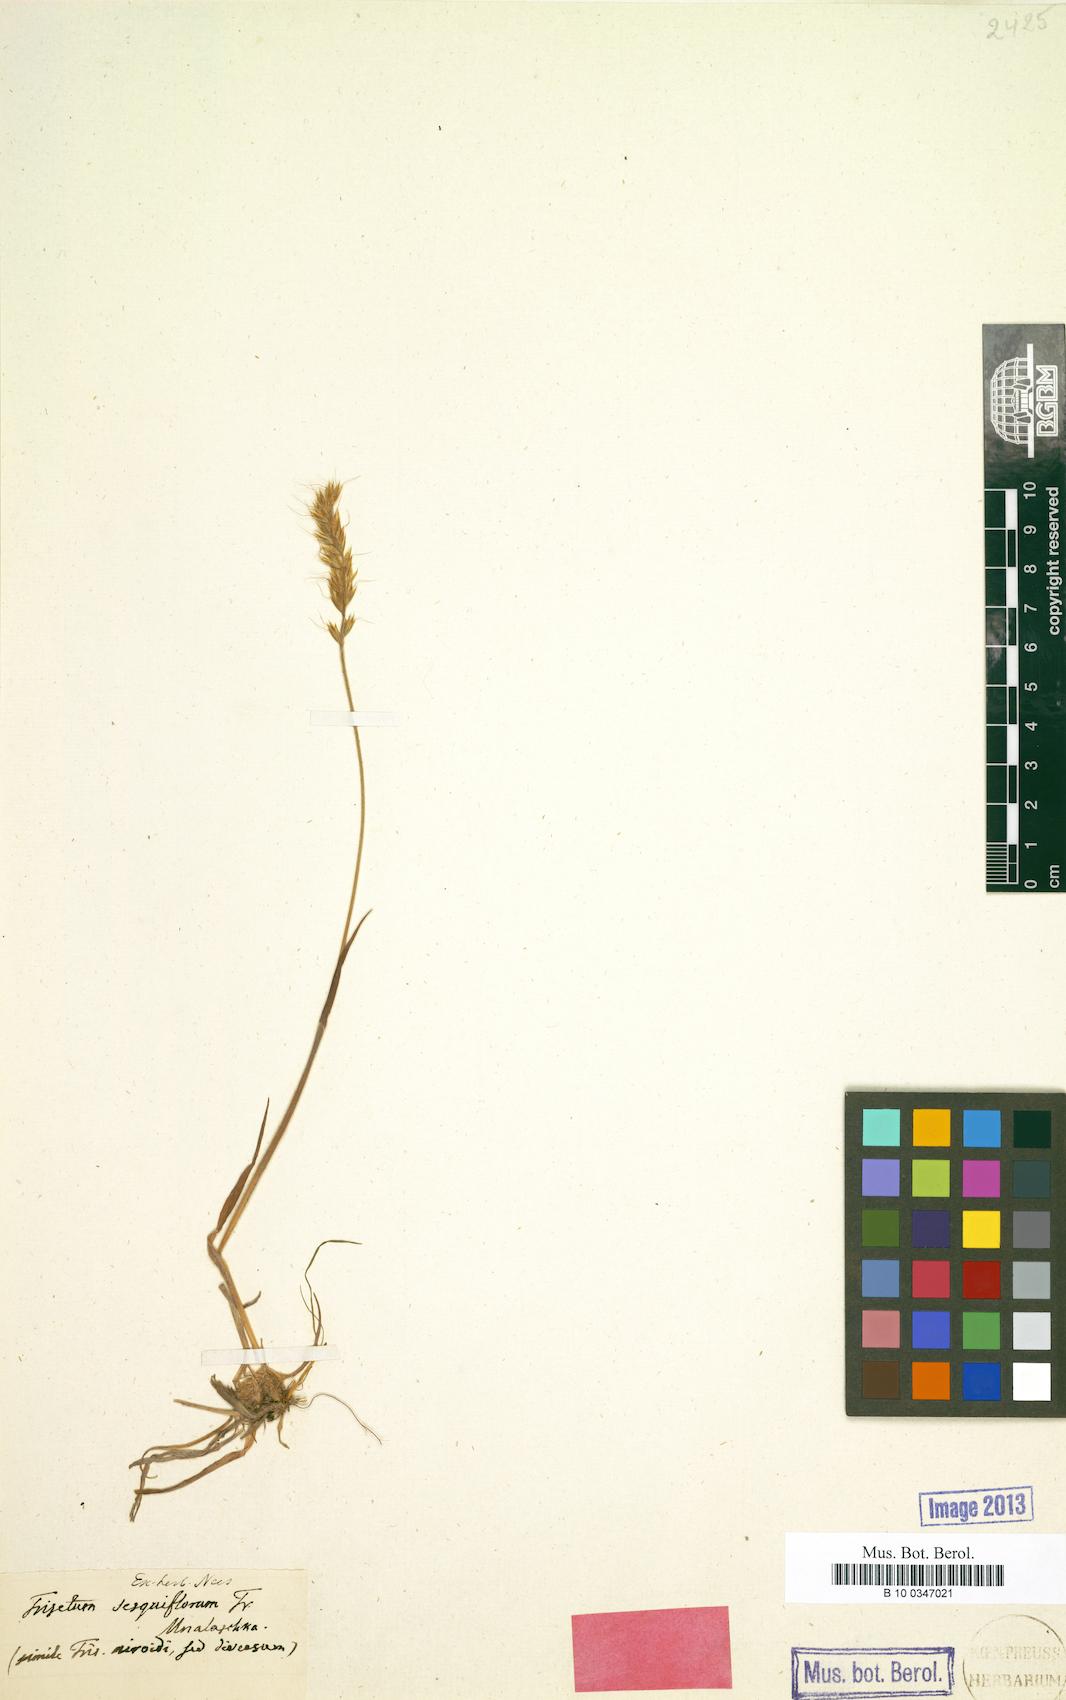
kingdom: Plantae
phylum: Tracheophyta
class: Liliopsida
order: Poales
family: Poaceae
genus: Calamagrostis
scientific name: Calamagrostis sesquiflora
